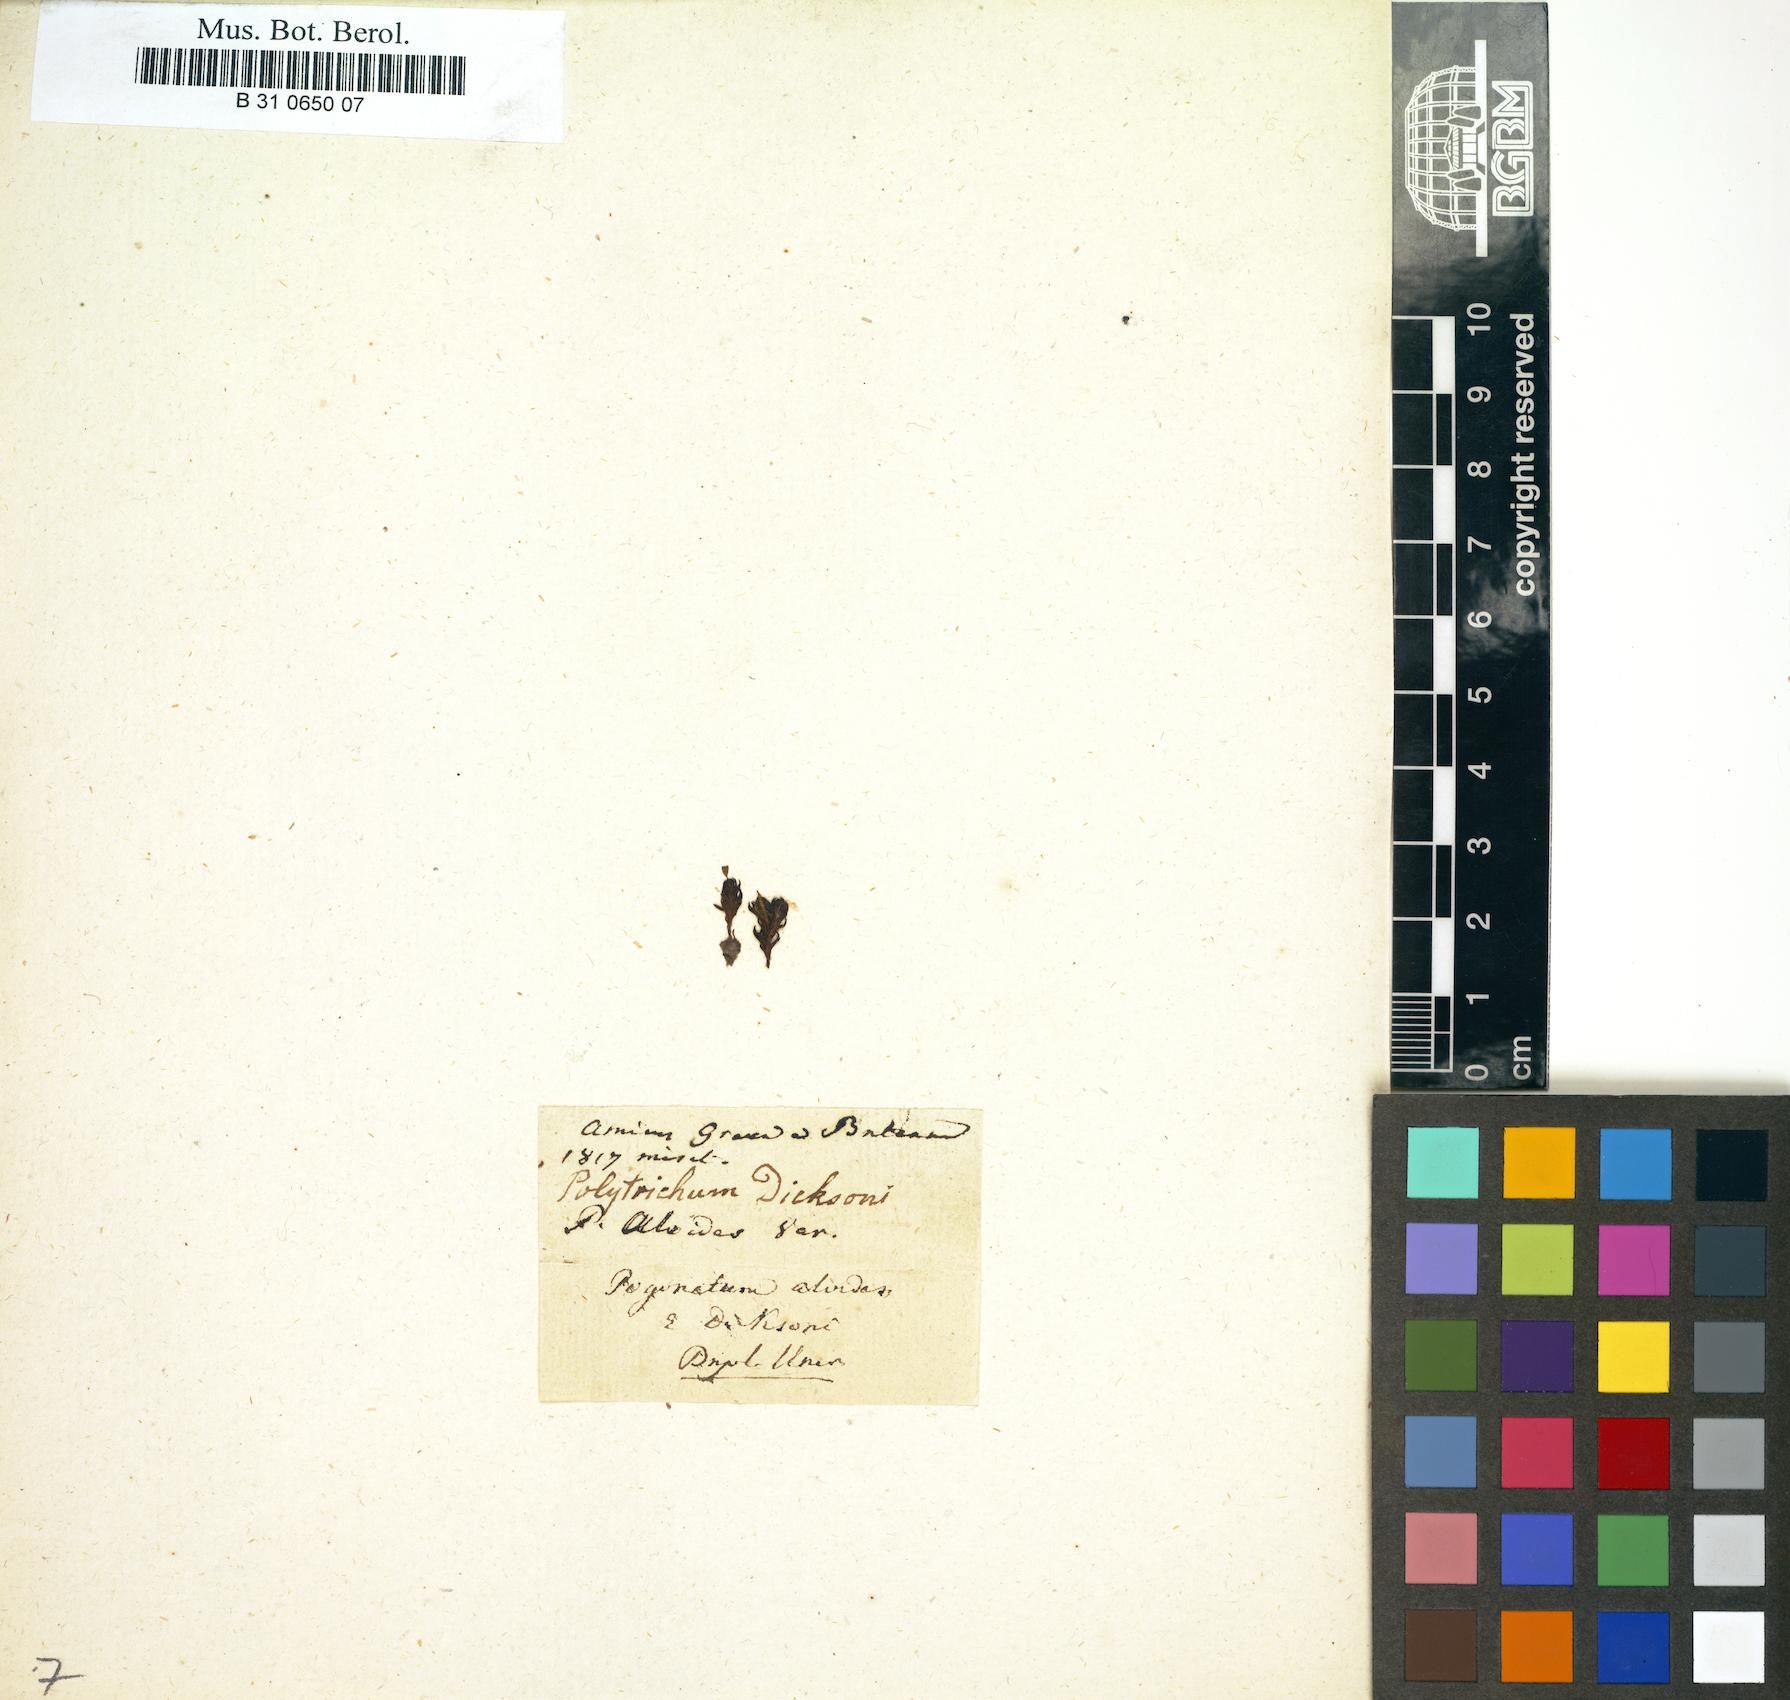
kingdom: Plantae
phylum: Bryophyta
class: Polytrichopsida
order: Polytrichales
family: Polytrichaceae
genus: Pogonatum
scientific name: Pogonatum aloides
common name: Aloe haircap
